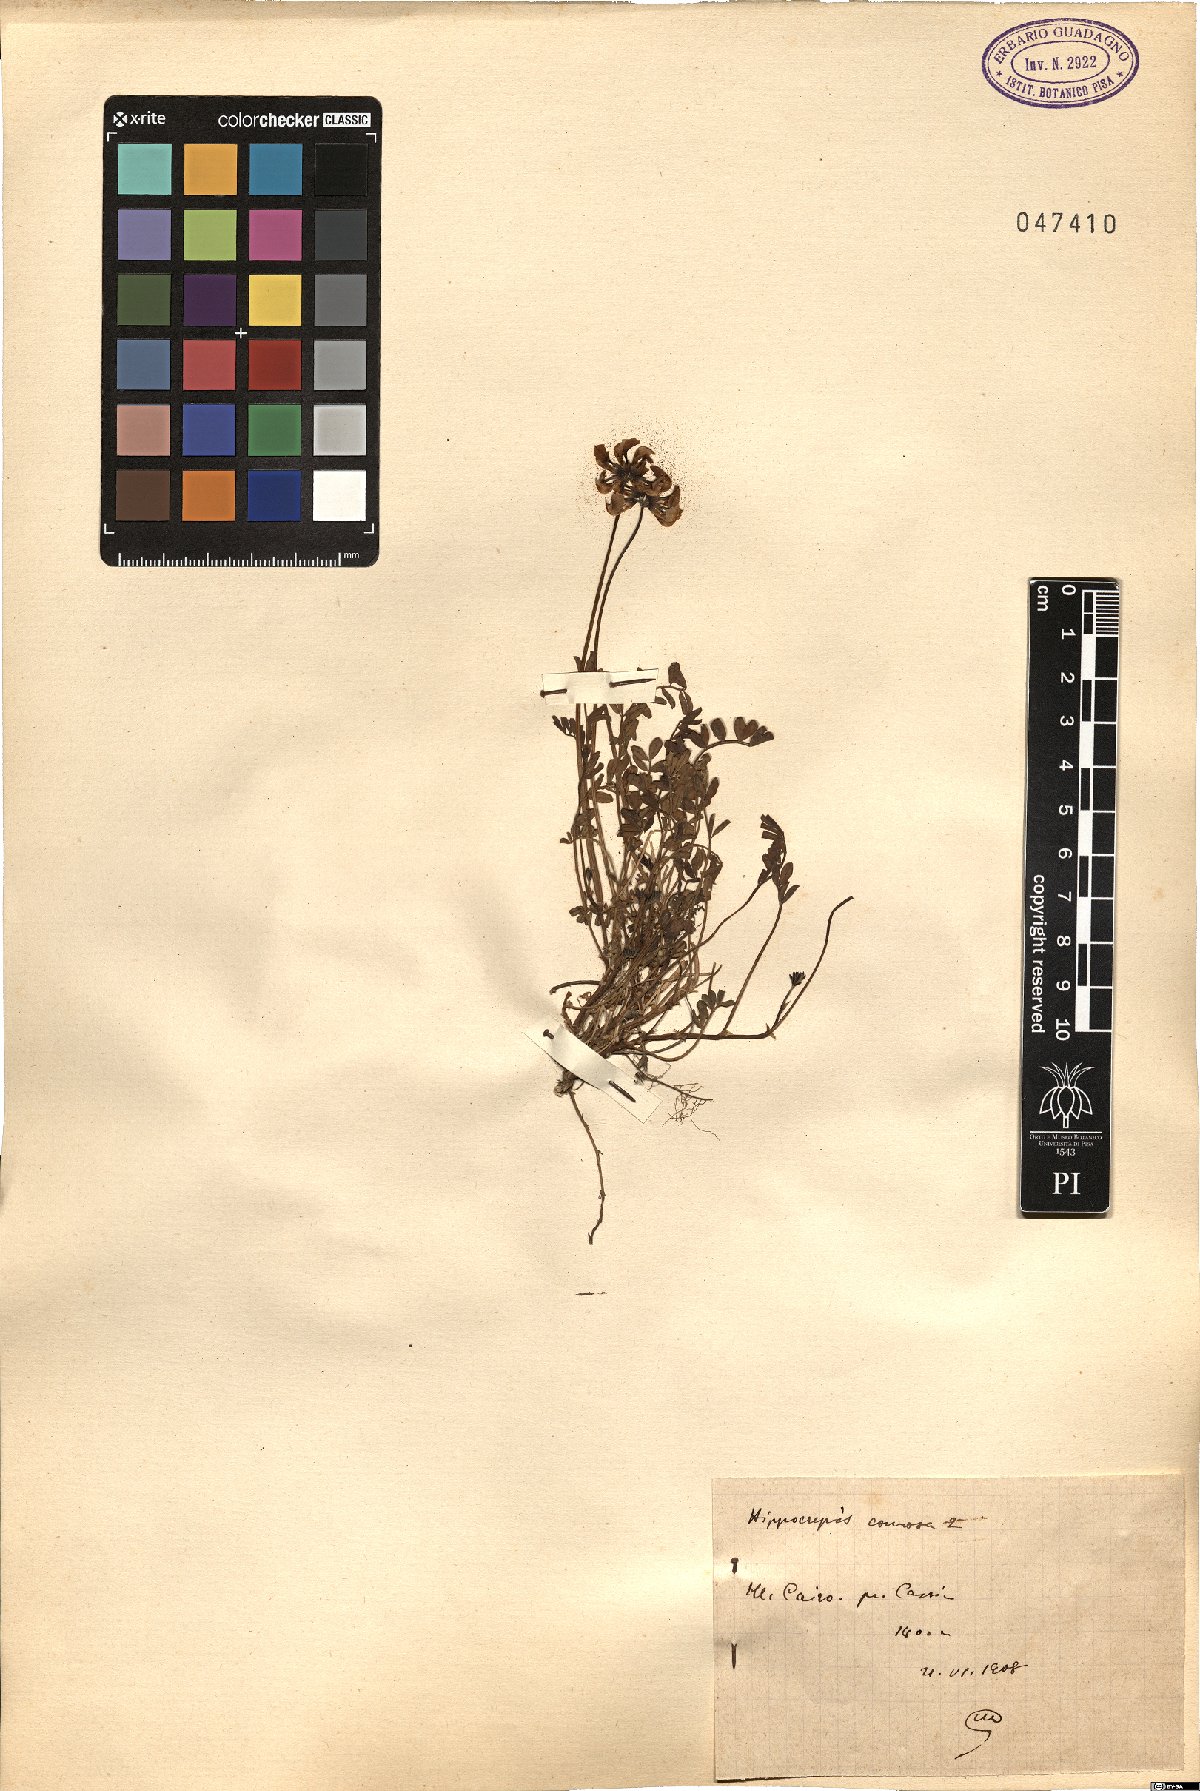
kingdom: Plantae
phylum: Tracheophyta
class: Magnoliopsida
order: Fabales
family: Fabaceae
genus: Hippocrepis
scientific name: Hippocrepis comosa
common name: Horseshoe vetch
